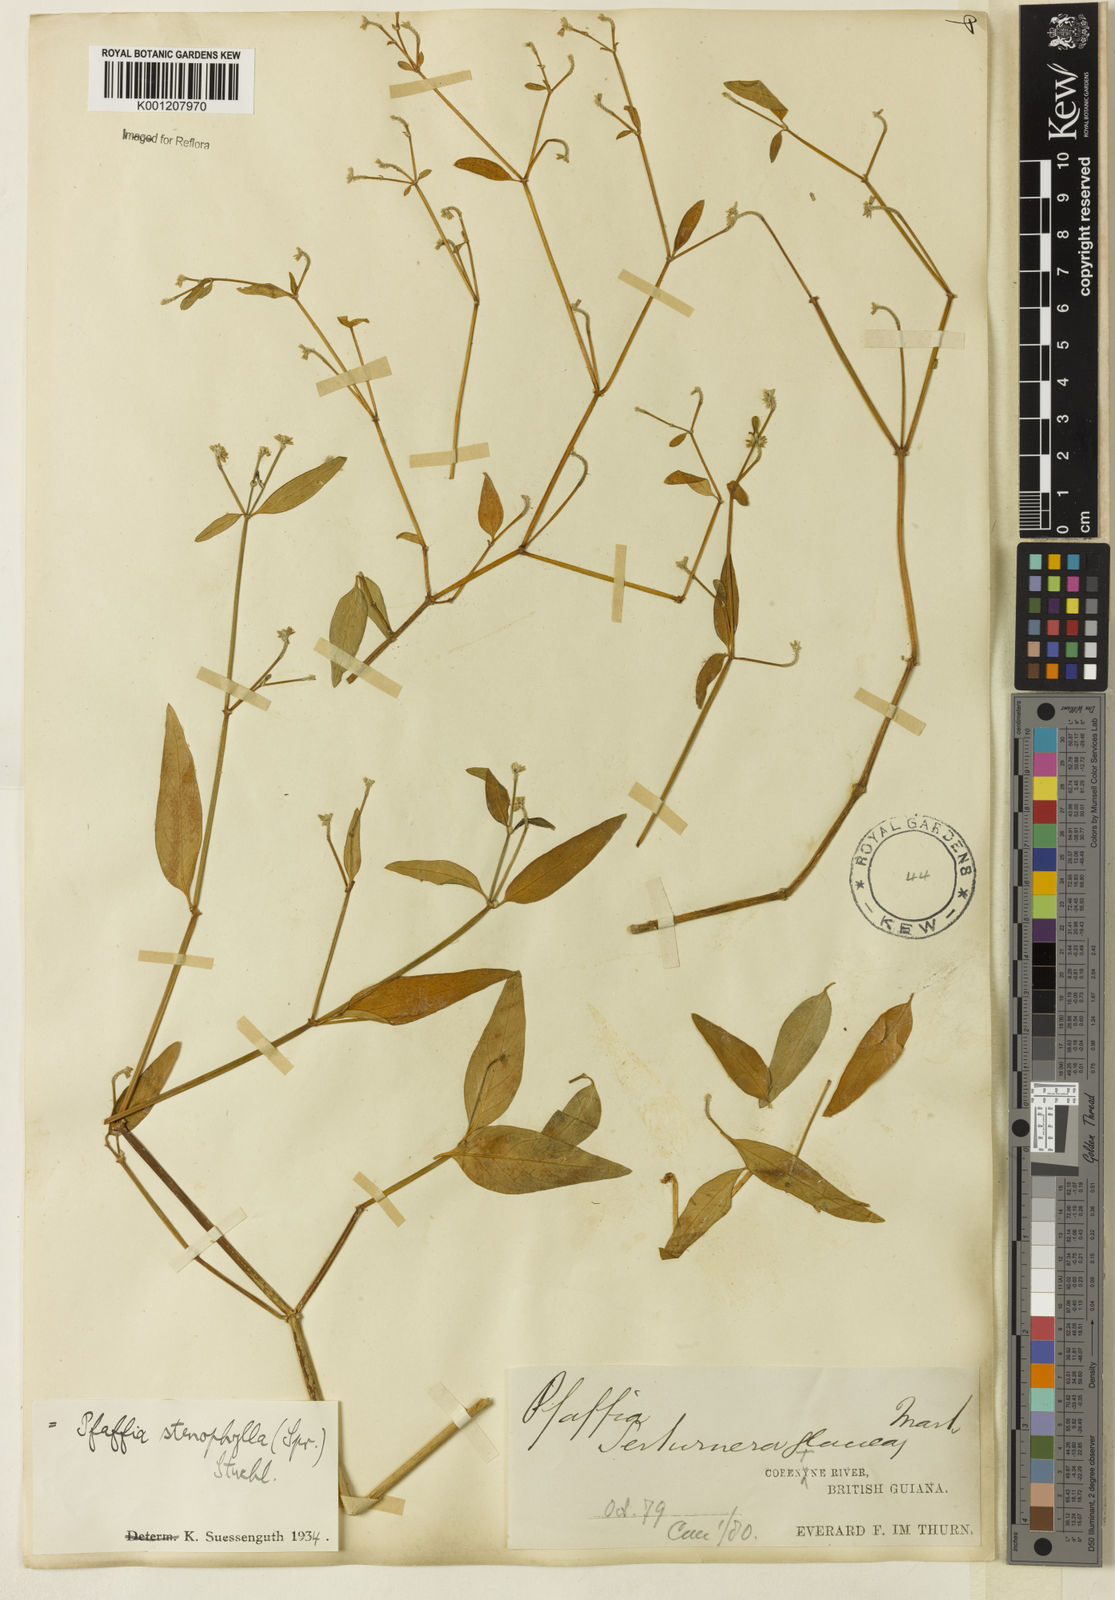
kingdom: Plantae
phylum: Tracheophyta
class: Magnoliopsida
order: Caryophyllales
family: Amaranthaceae
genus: Pfaffia
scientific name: Pfaffia
